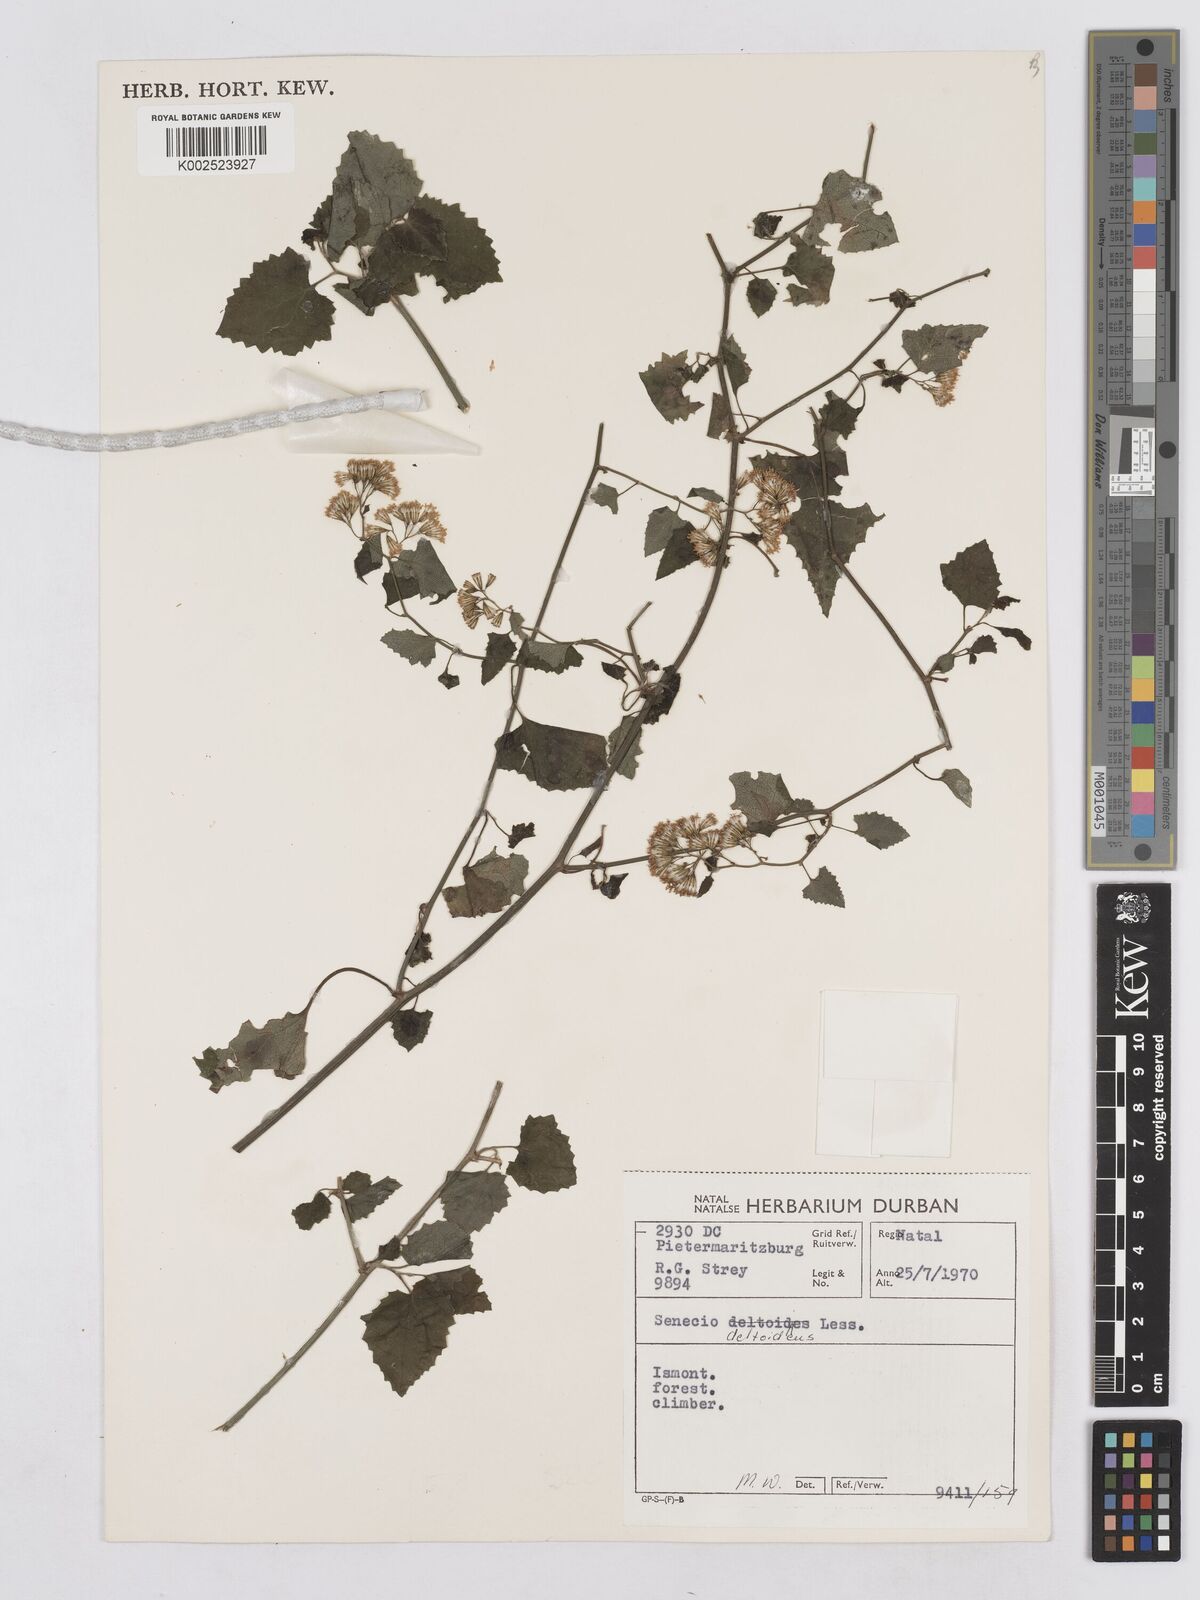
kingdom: Plantae
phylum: Tracheophyta
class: Magnoliopsida
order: Asterales
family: Asteraceae
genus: Senecio
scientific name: Senecio deltoideus
